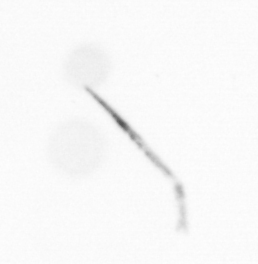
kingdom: Chromista
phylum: Ochrophyta
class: Bacillariophyceae
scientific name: Bacillariophyceae
